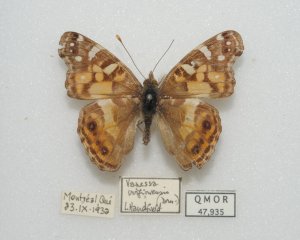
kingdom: Animalia
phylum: Arthropoda
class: Insecta
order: Lepidoptera
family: Nymphalidae
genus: Vanessa
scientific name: Vanessa virginiensis
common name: American Lady
